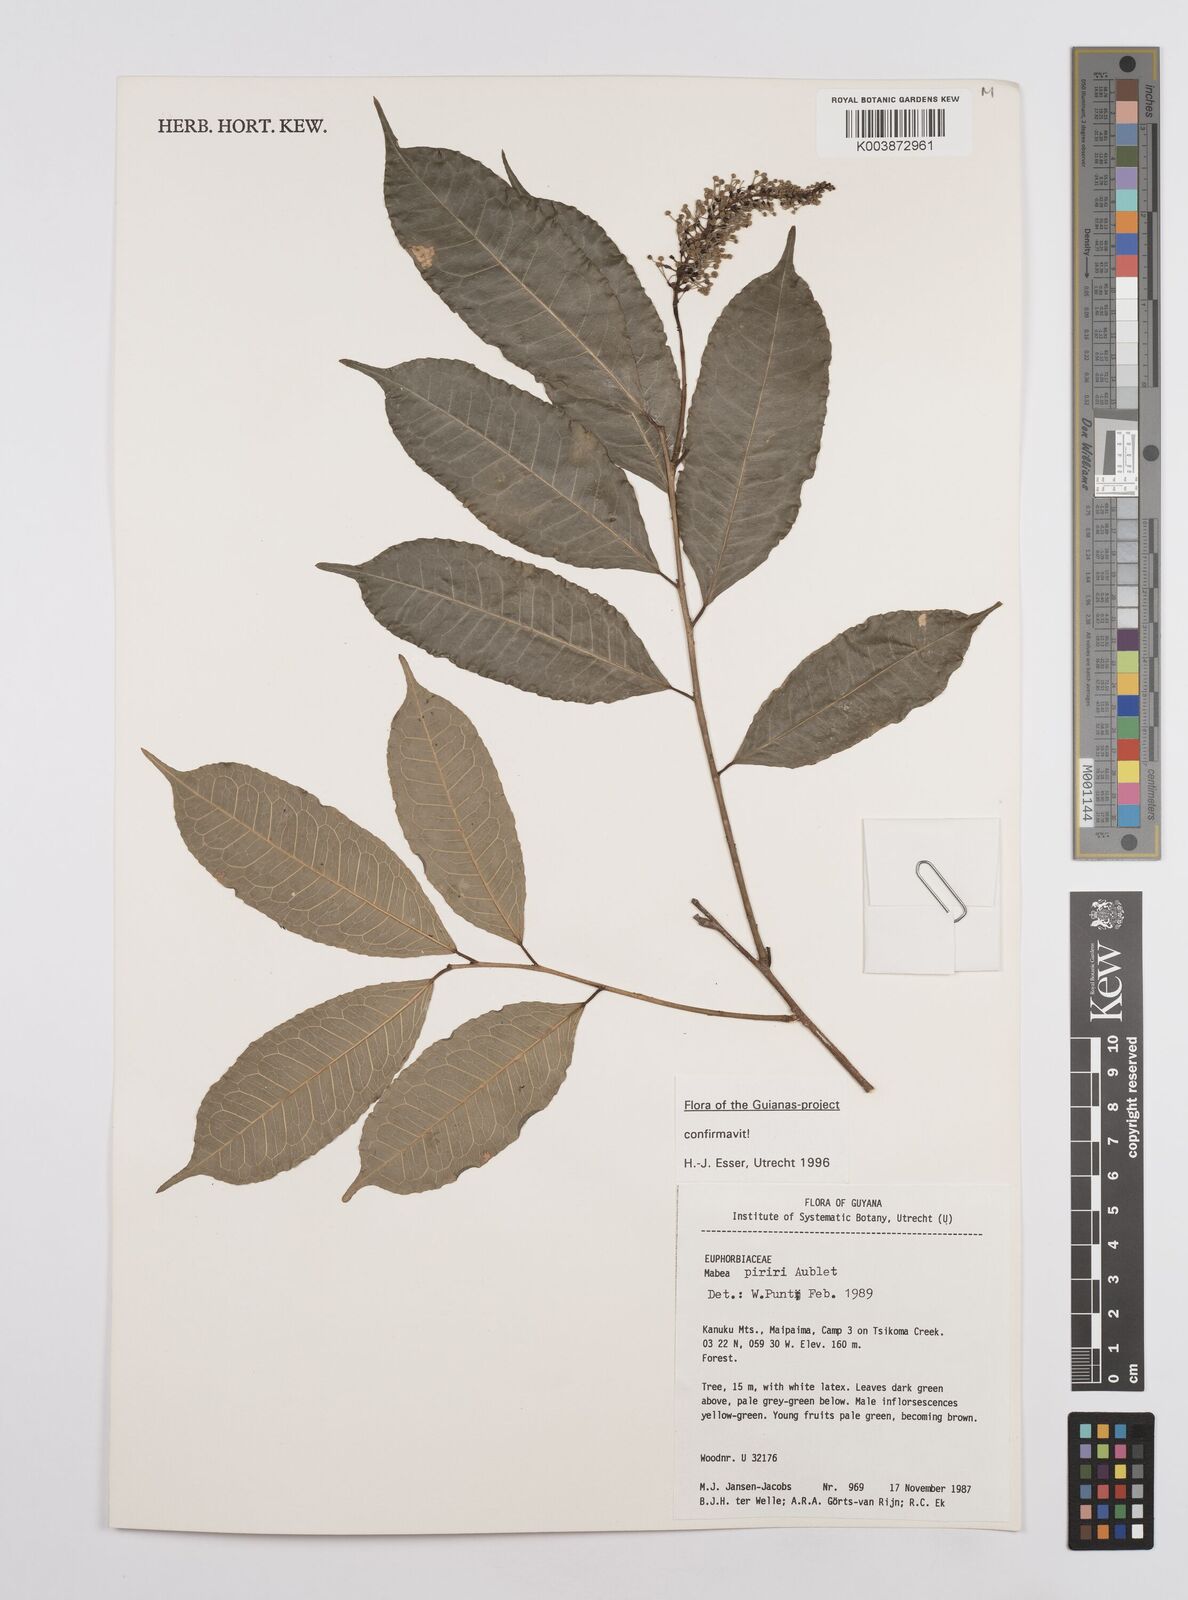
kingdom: Plantae
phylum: Tracheophyta
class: Magnoliopsida
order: Malpighiales
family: Euphorbiaceae
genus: Mabea
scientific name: Mabea piriri
